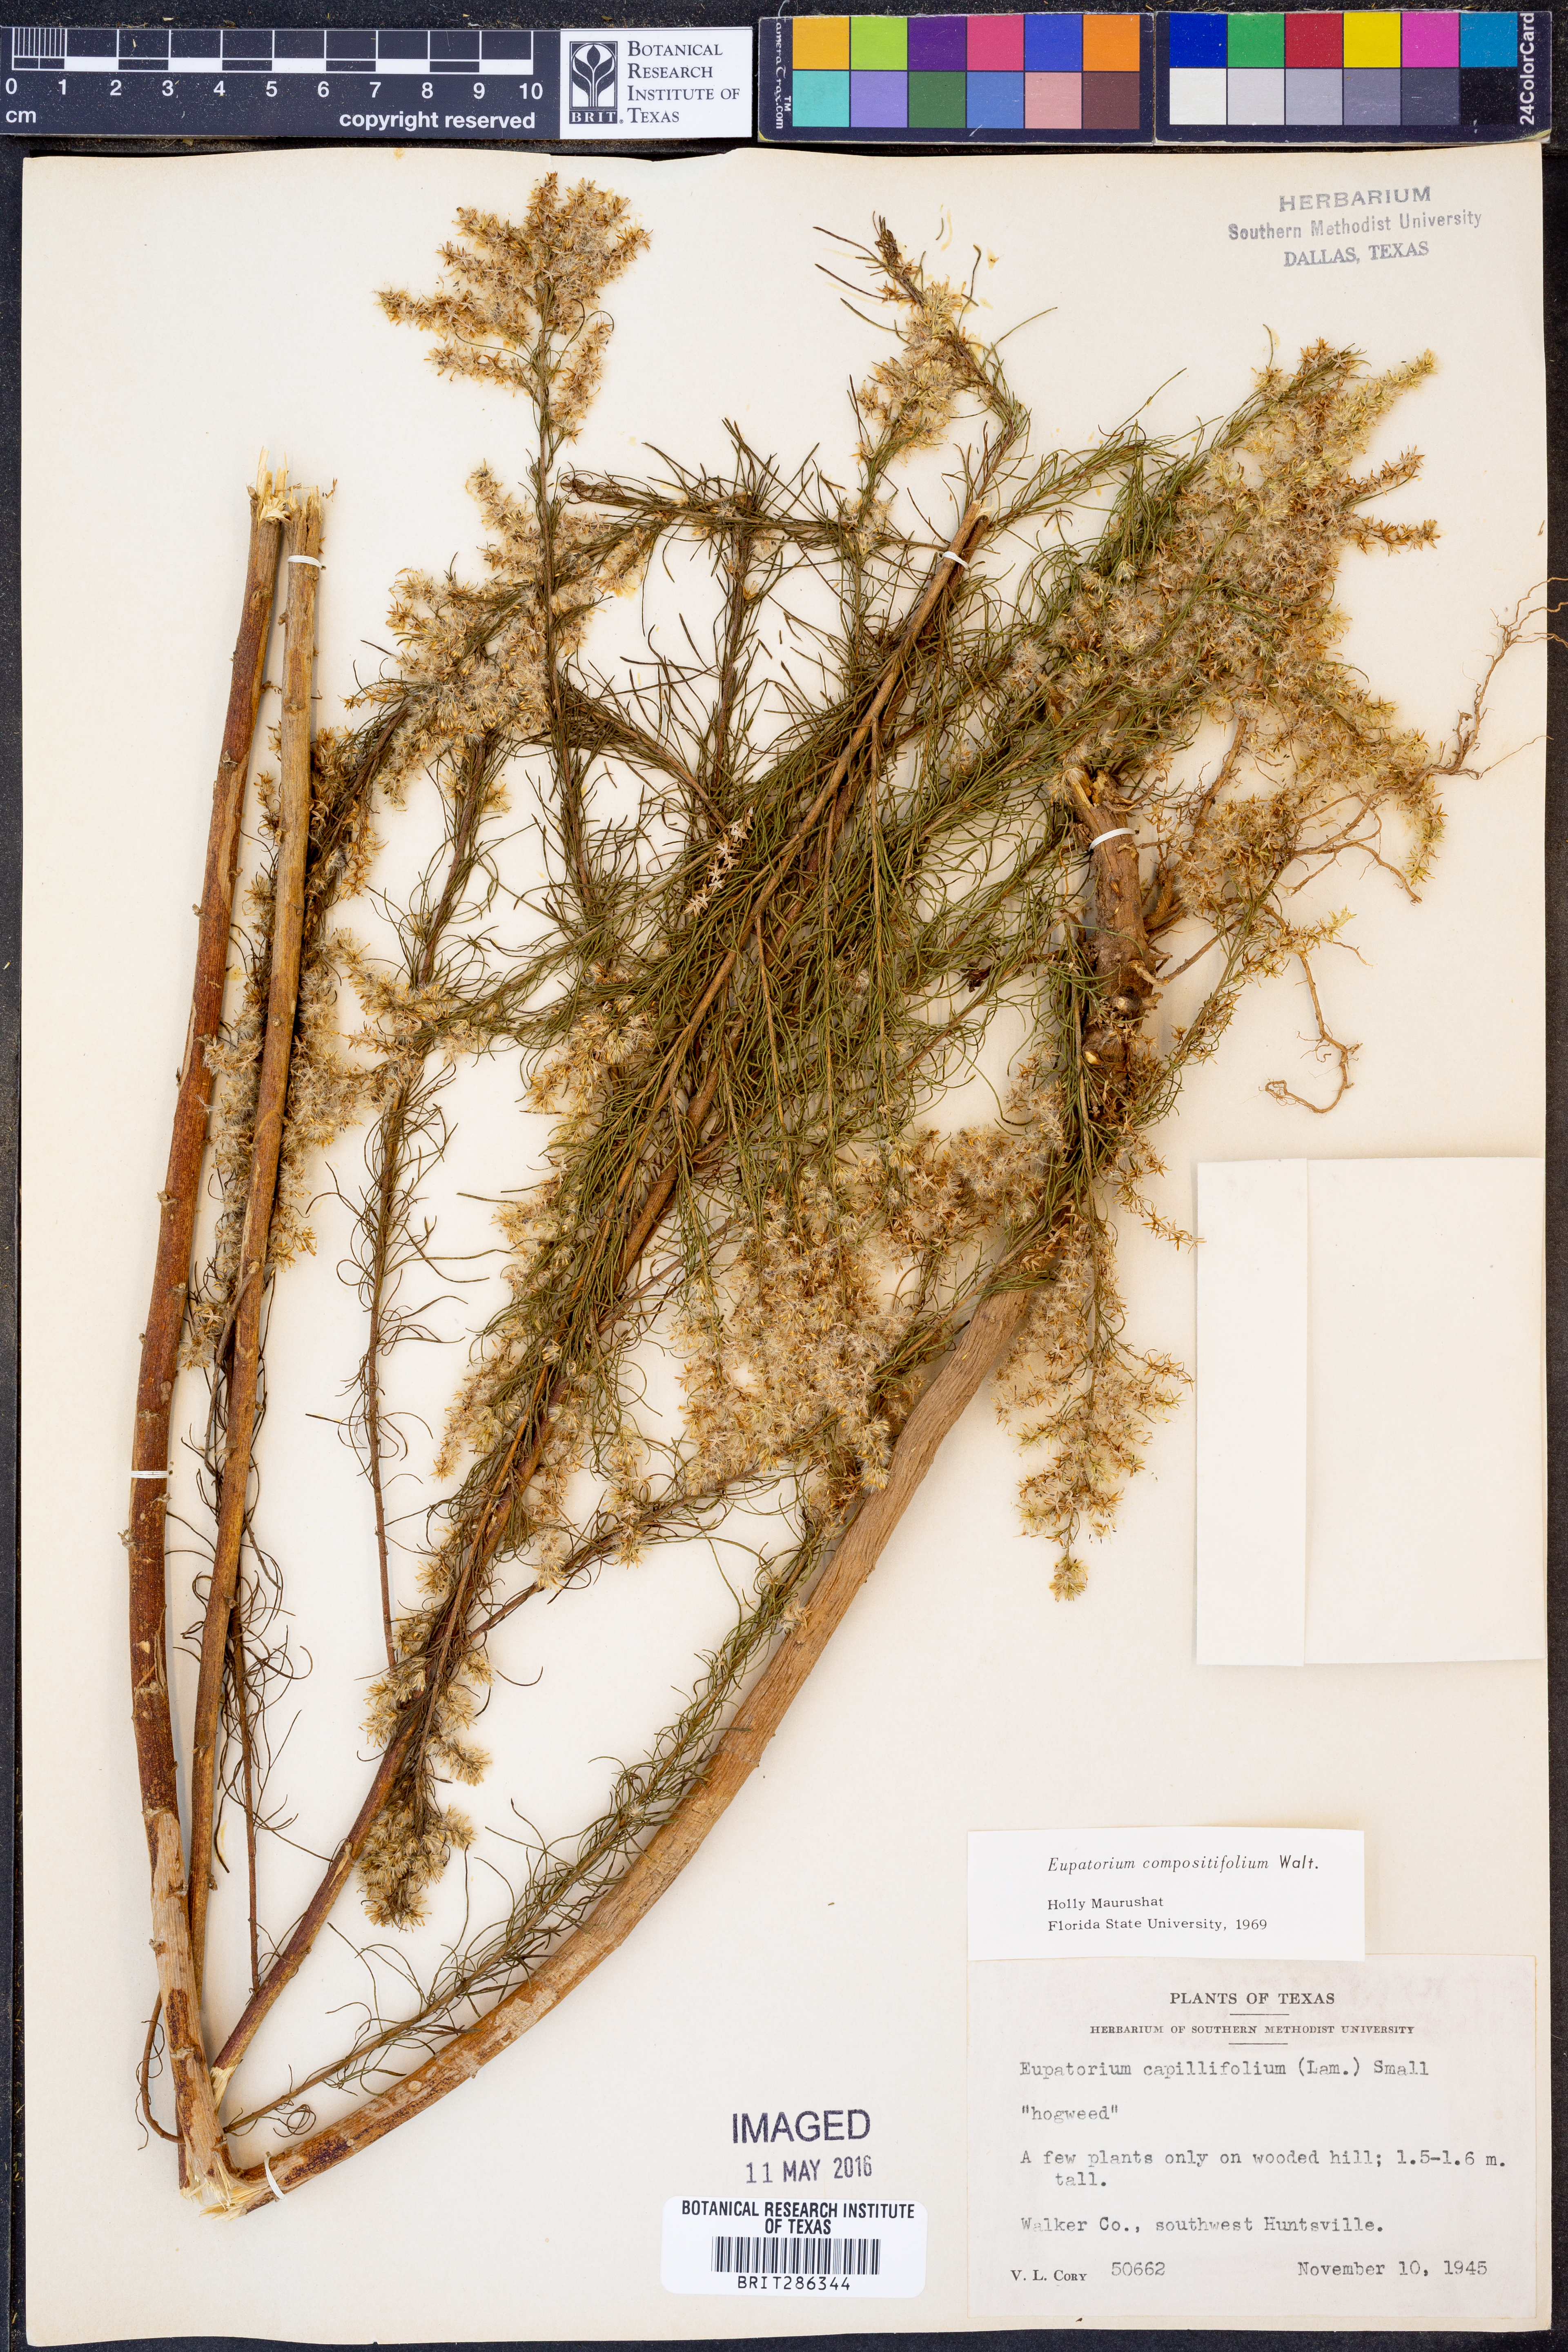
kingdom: Plantae
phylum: Tracheophyta
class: Magnoliopsida
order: Asterales
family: Asteraceae
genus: Eupatorium
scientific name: Eupatorium compositifolium
